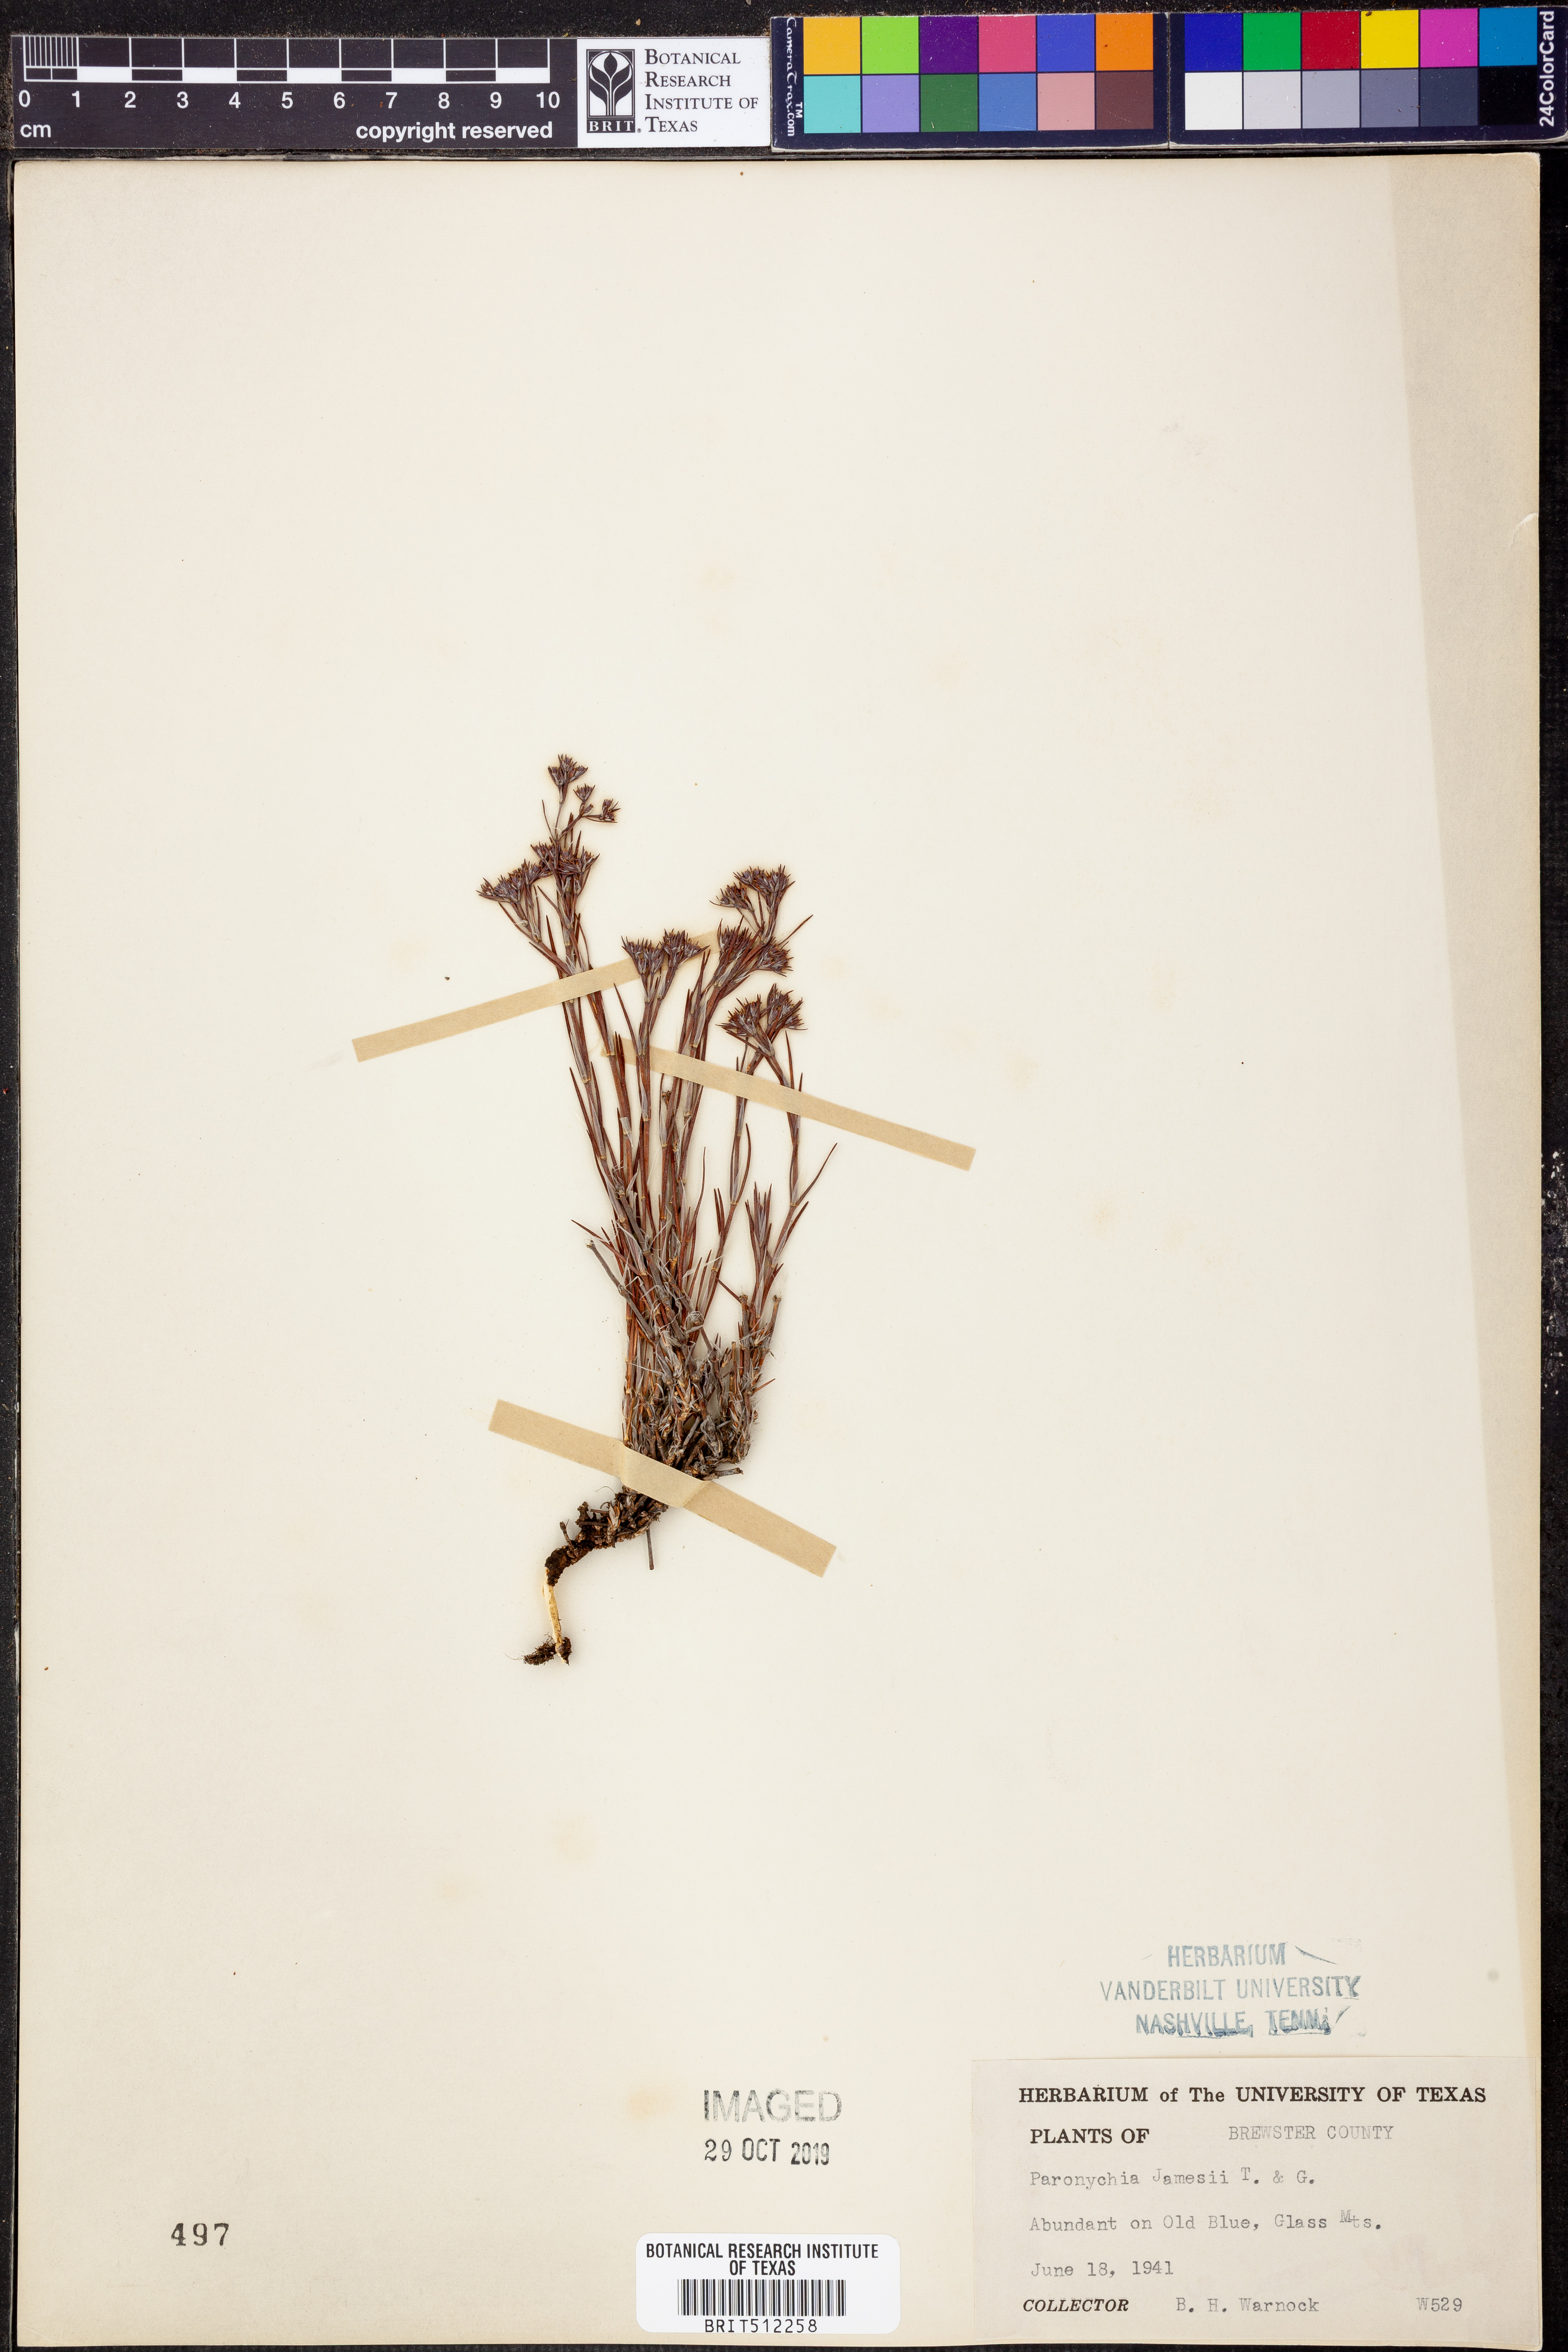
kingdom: Plantae
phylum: Tracheophyta
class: Magnoliopsida
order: Caryophyllales
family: Caryophyllaceae
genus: Paronychia
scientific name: Paronychia jamesii
